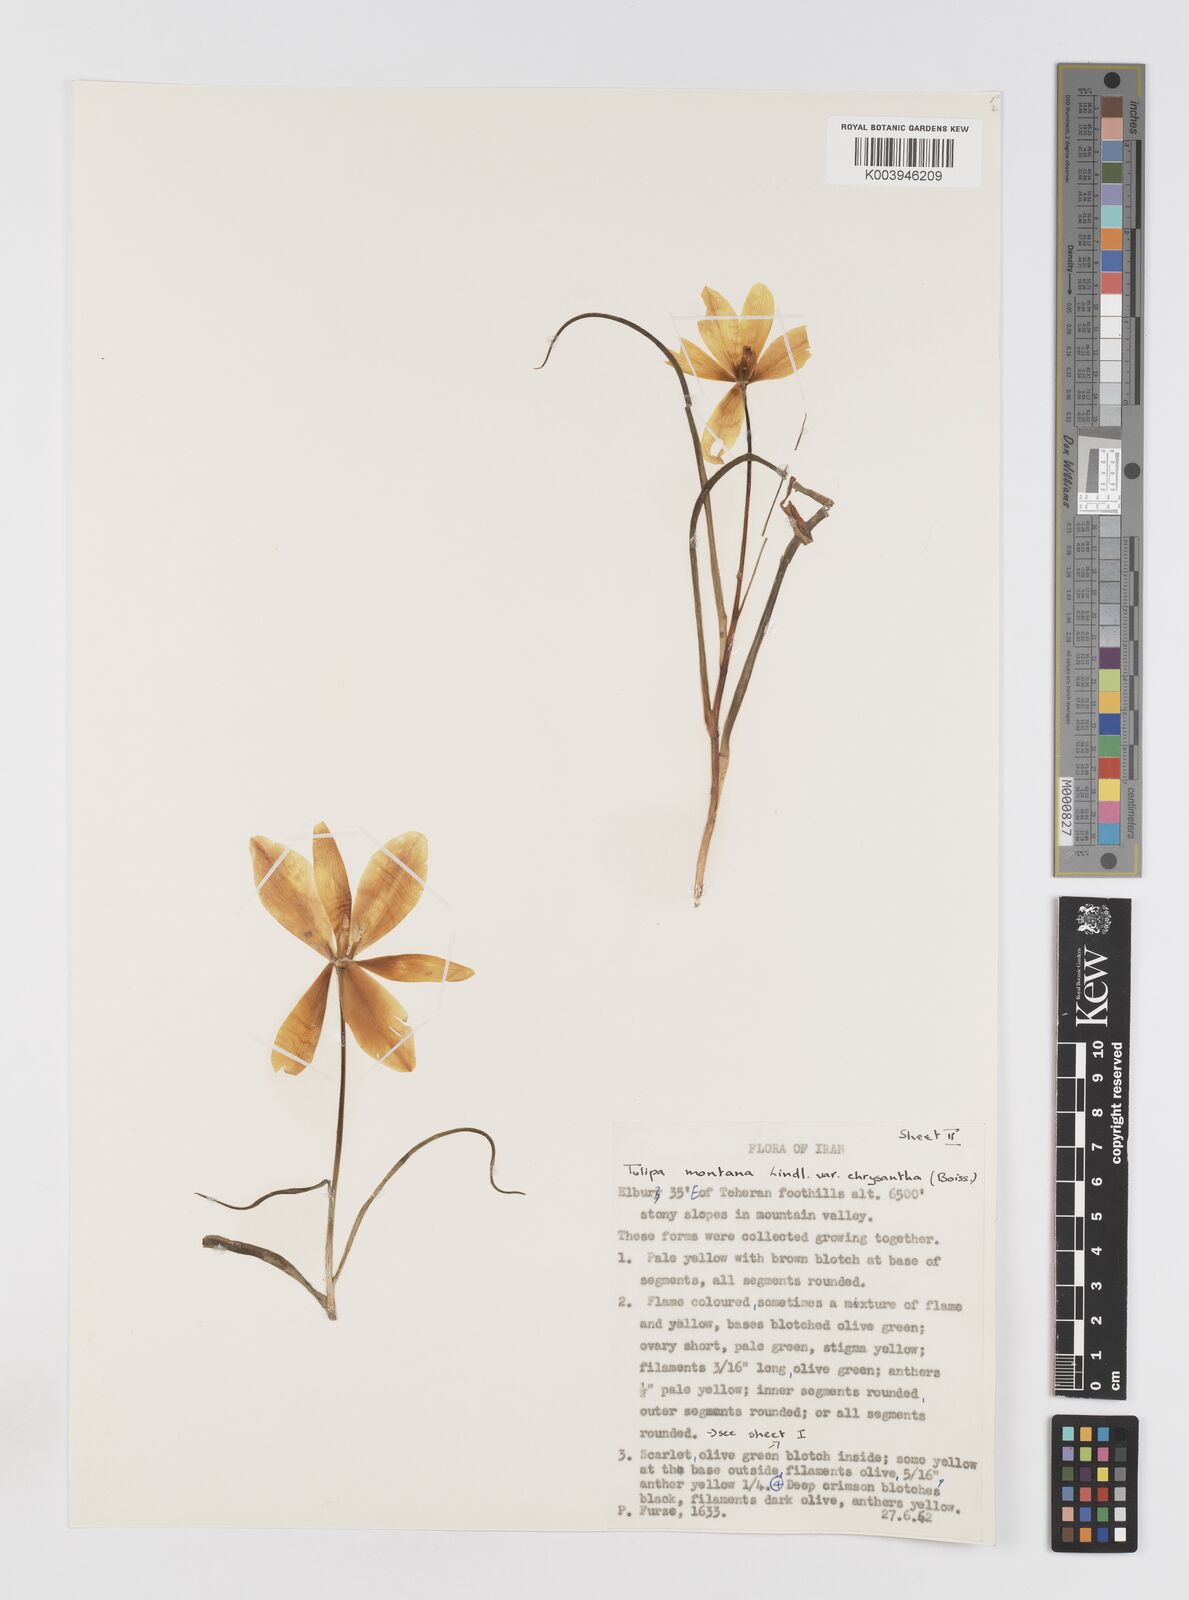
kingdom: Plantae
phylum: Tracheophyta
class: Liliopsida
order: Liliales
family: Liliaceae
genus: Tulipa
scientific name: Tulipa montana
